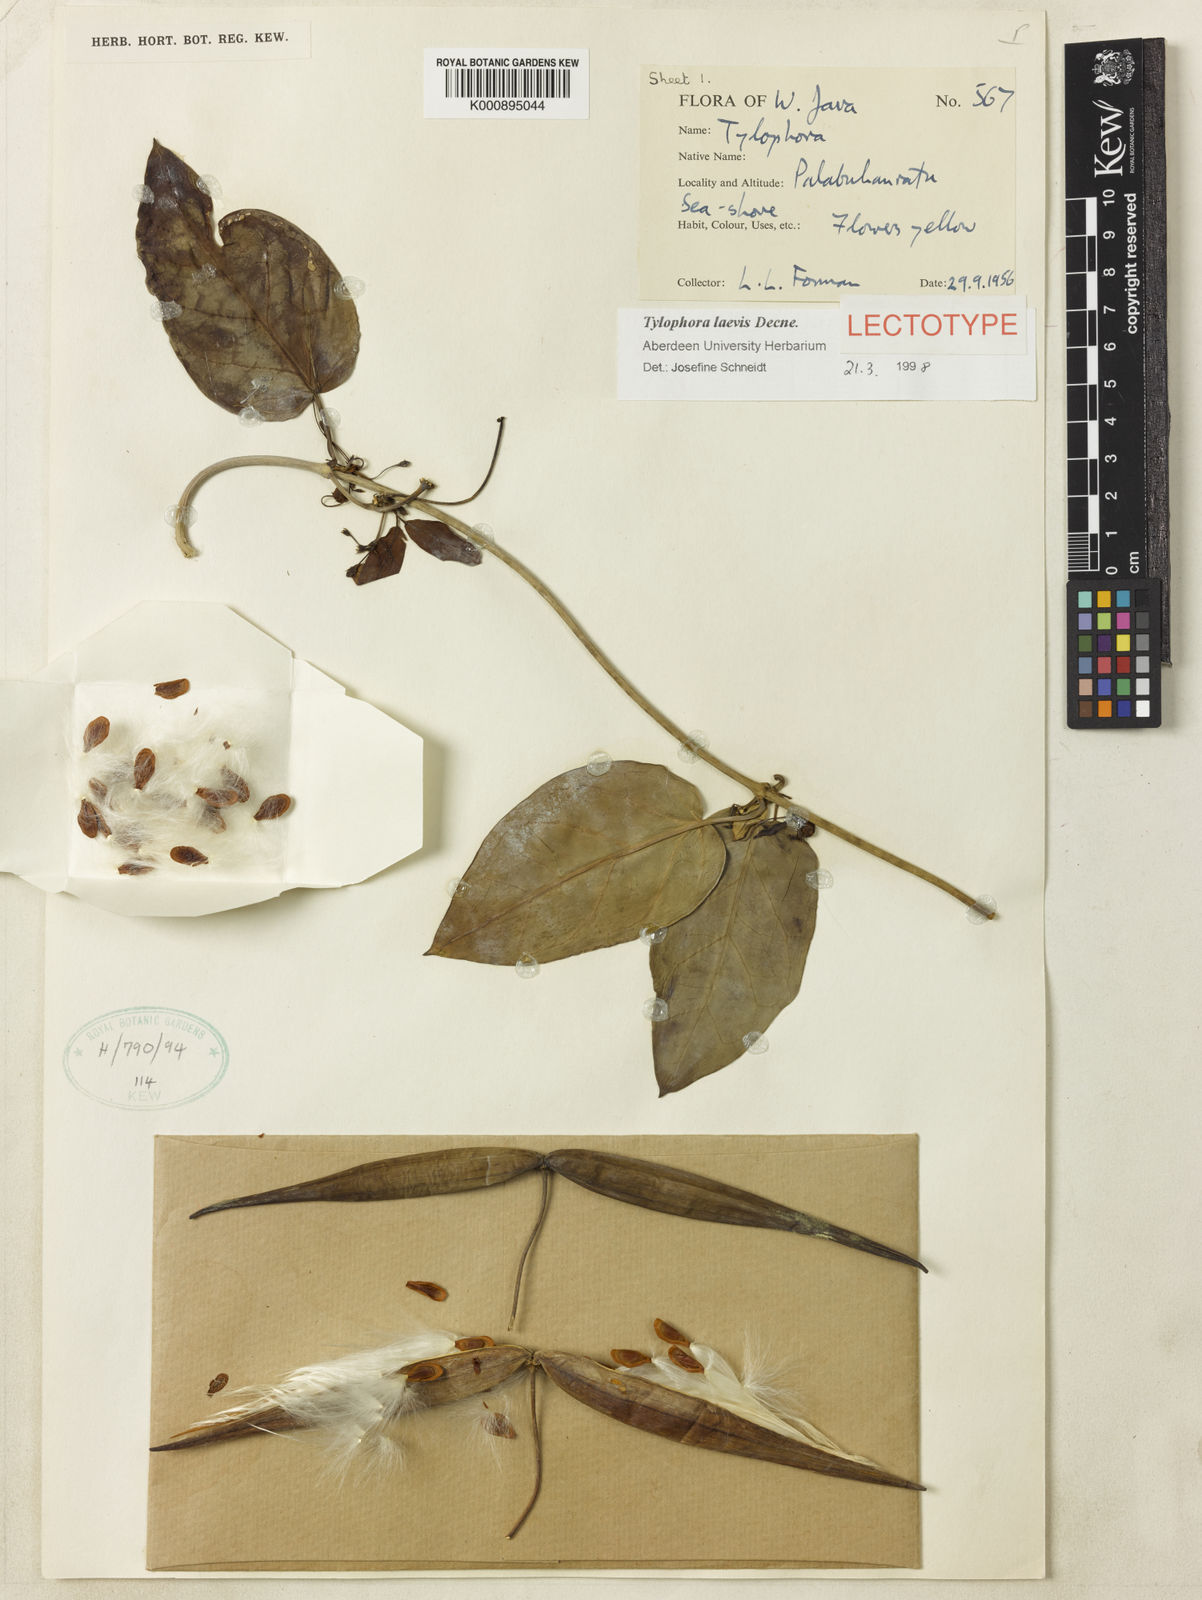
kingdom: Plantae
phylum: Tracheophyta
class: Magnoliopsida
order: Gentianales
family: Apocynaceae
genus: Vincetoxicum
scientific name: Vincetoxicum globiferum
